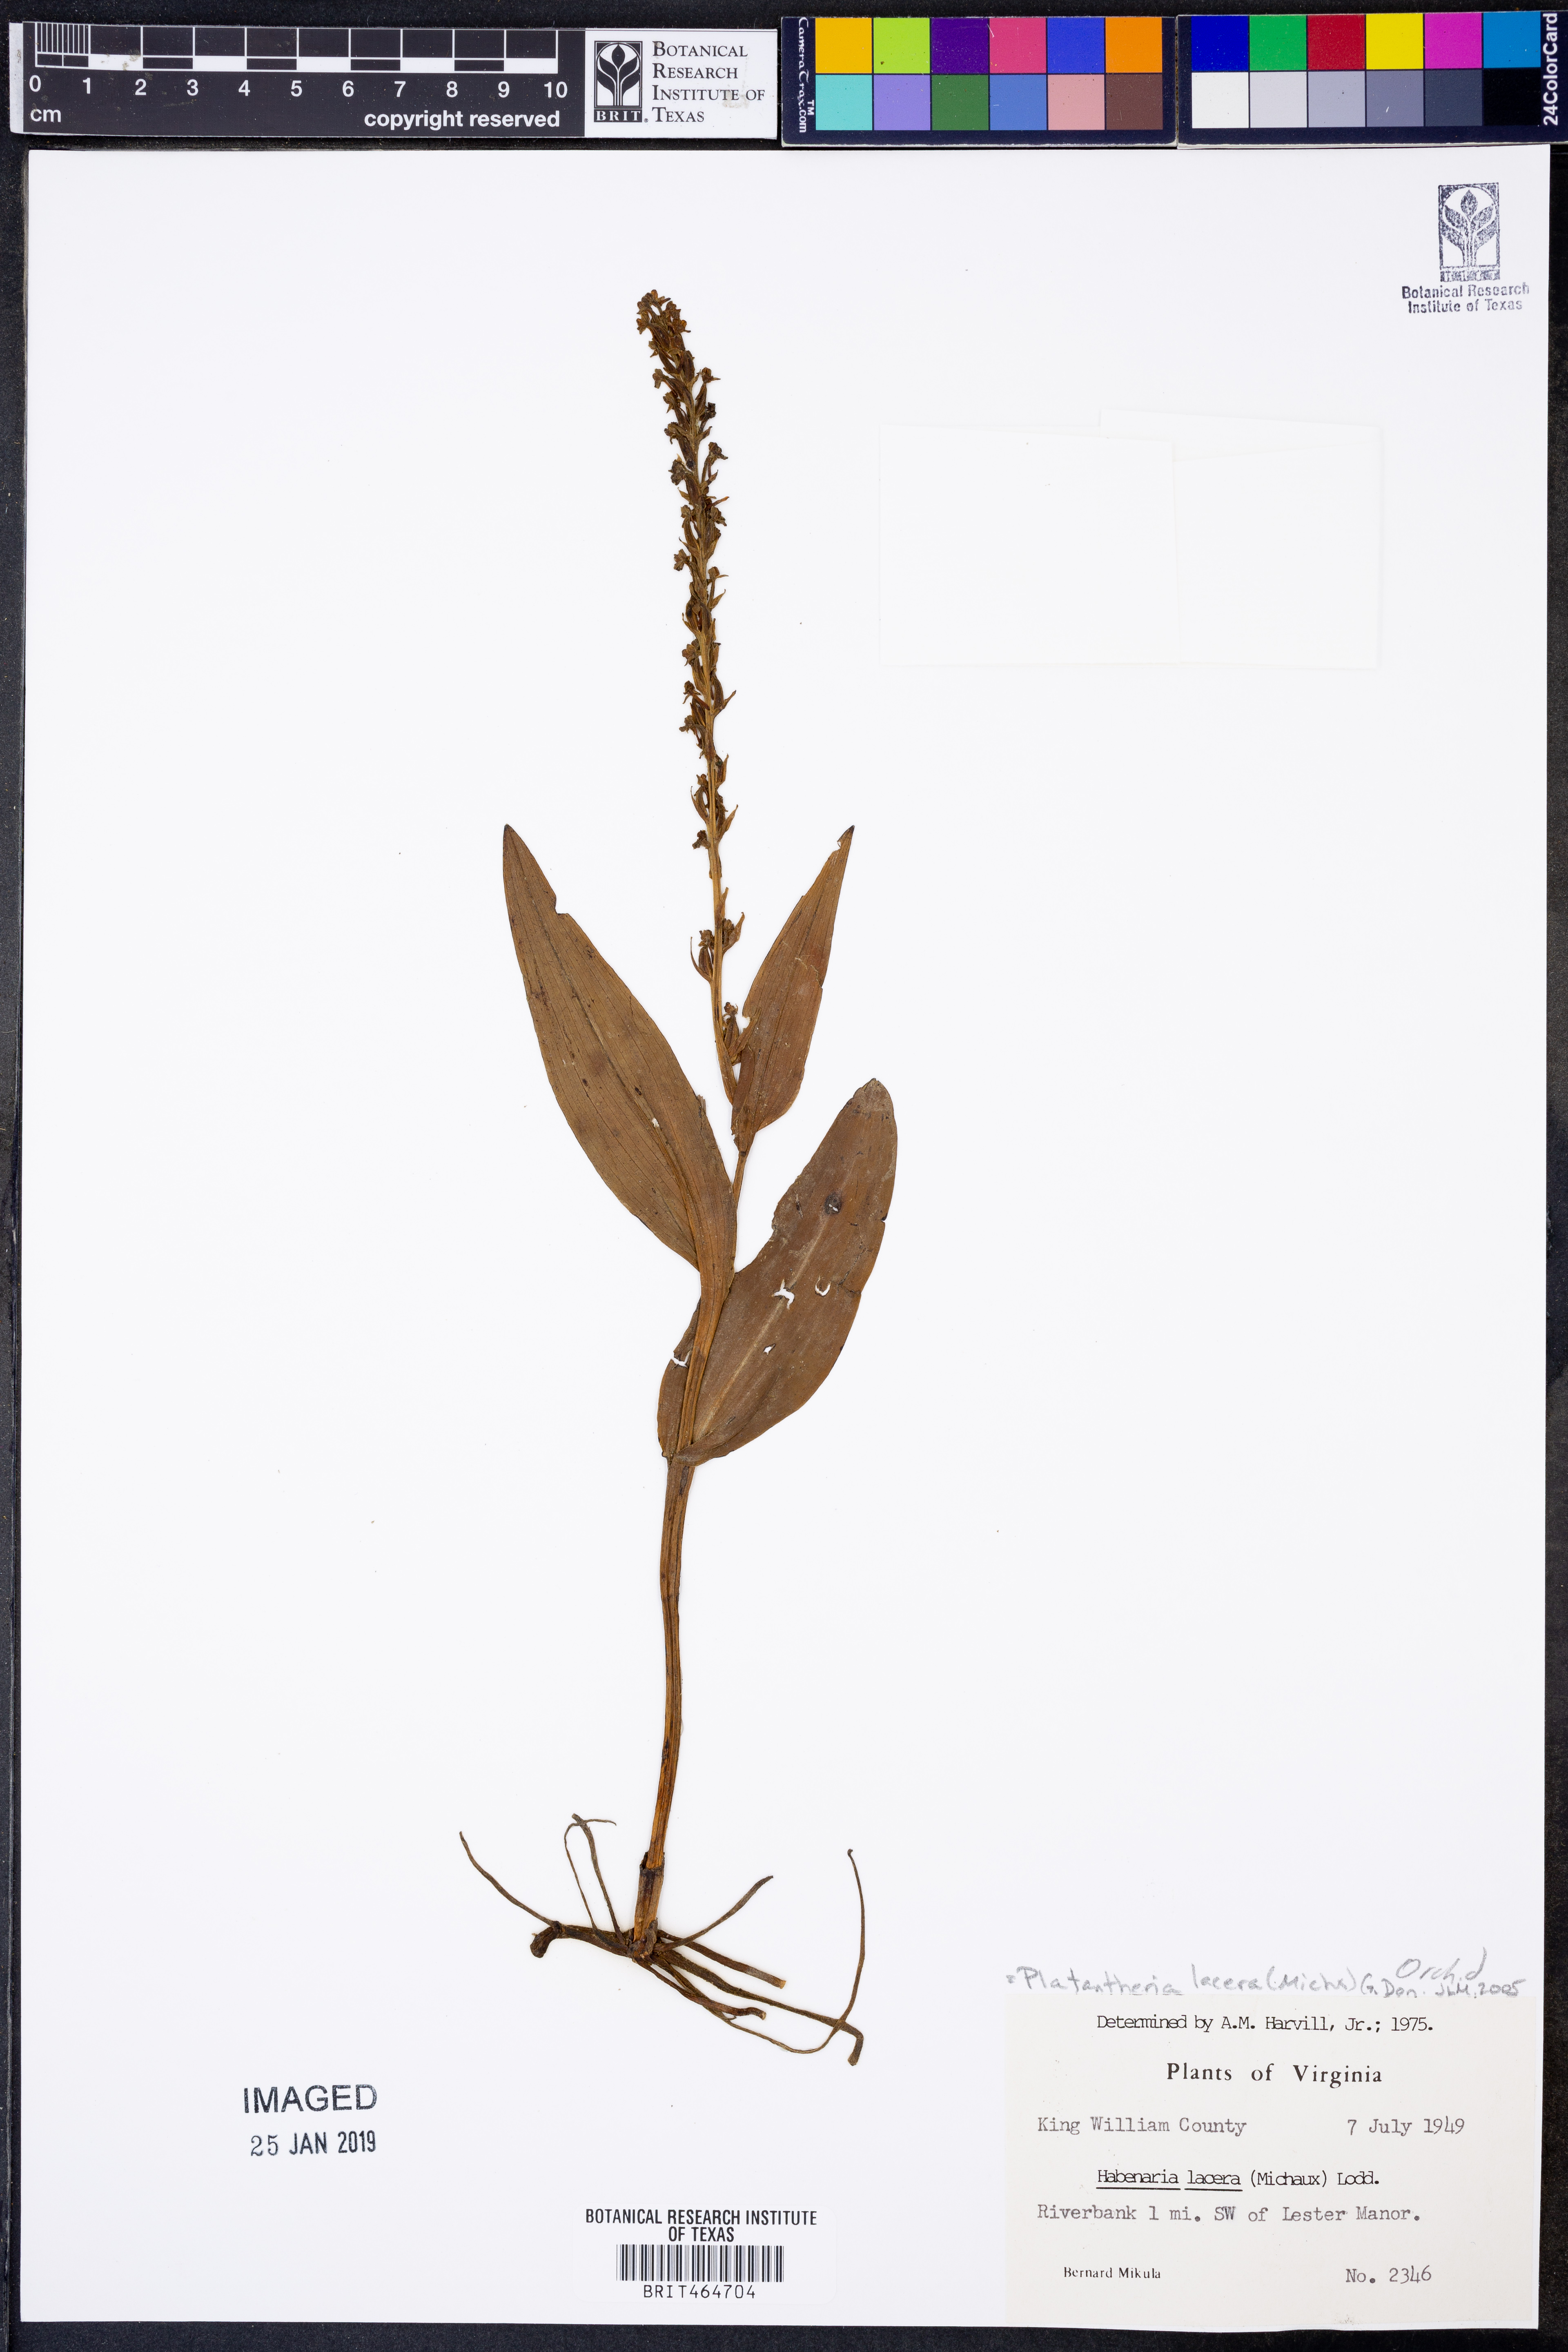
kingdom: Plantae
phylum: Tracheophyta
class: Liliopsida
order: Asparagales
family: Orchidaceae
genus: Platanthera
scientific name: Platanthera lacera
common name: Green fringed orchid
